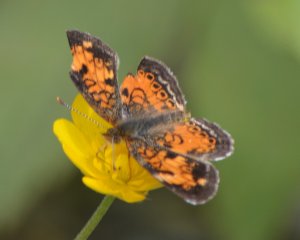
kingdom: Animalia
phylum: Arthropoda
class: Insecta
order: Lepidoptera
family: Nymphalidae
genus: Phyciodes
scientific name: Phyciodes tharos
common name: Northern Crescent
